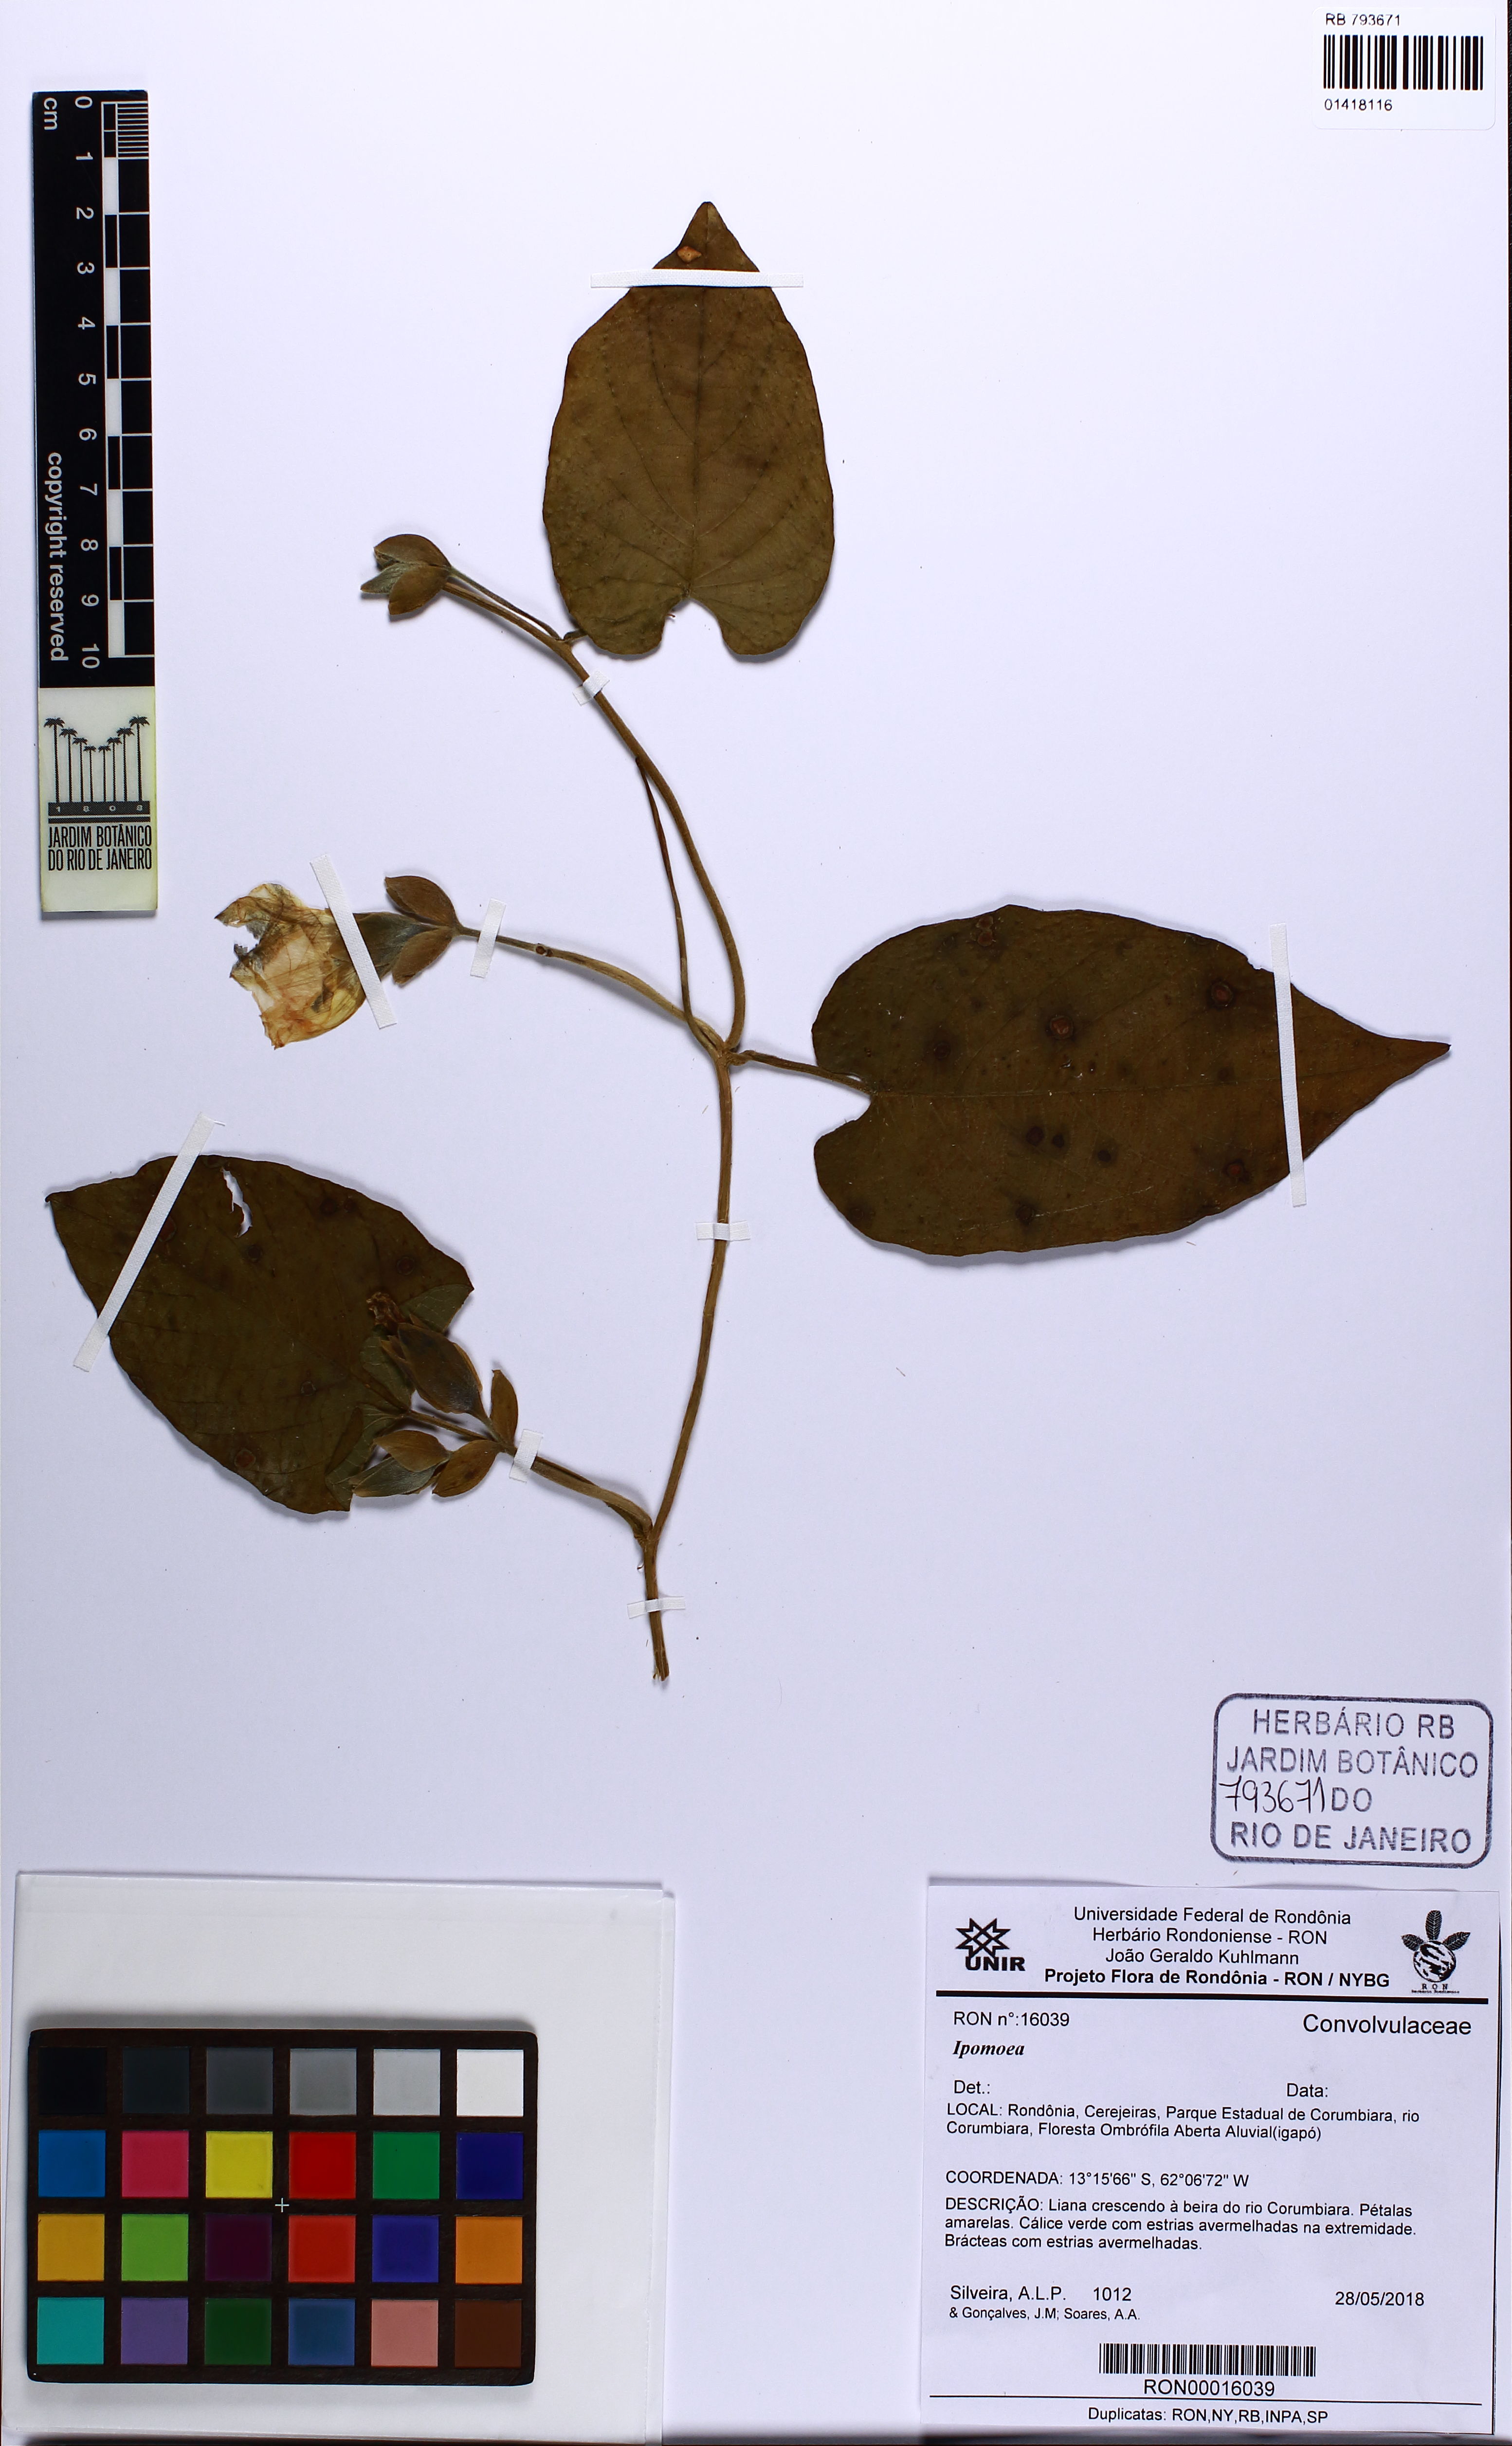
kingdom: Plantae
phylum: Tracheophyta
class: Magnoliopsida
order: Solanales
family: Convolvulaceae
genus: Ipomoea
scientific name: Ipomoea
